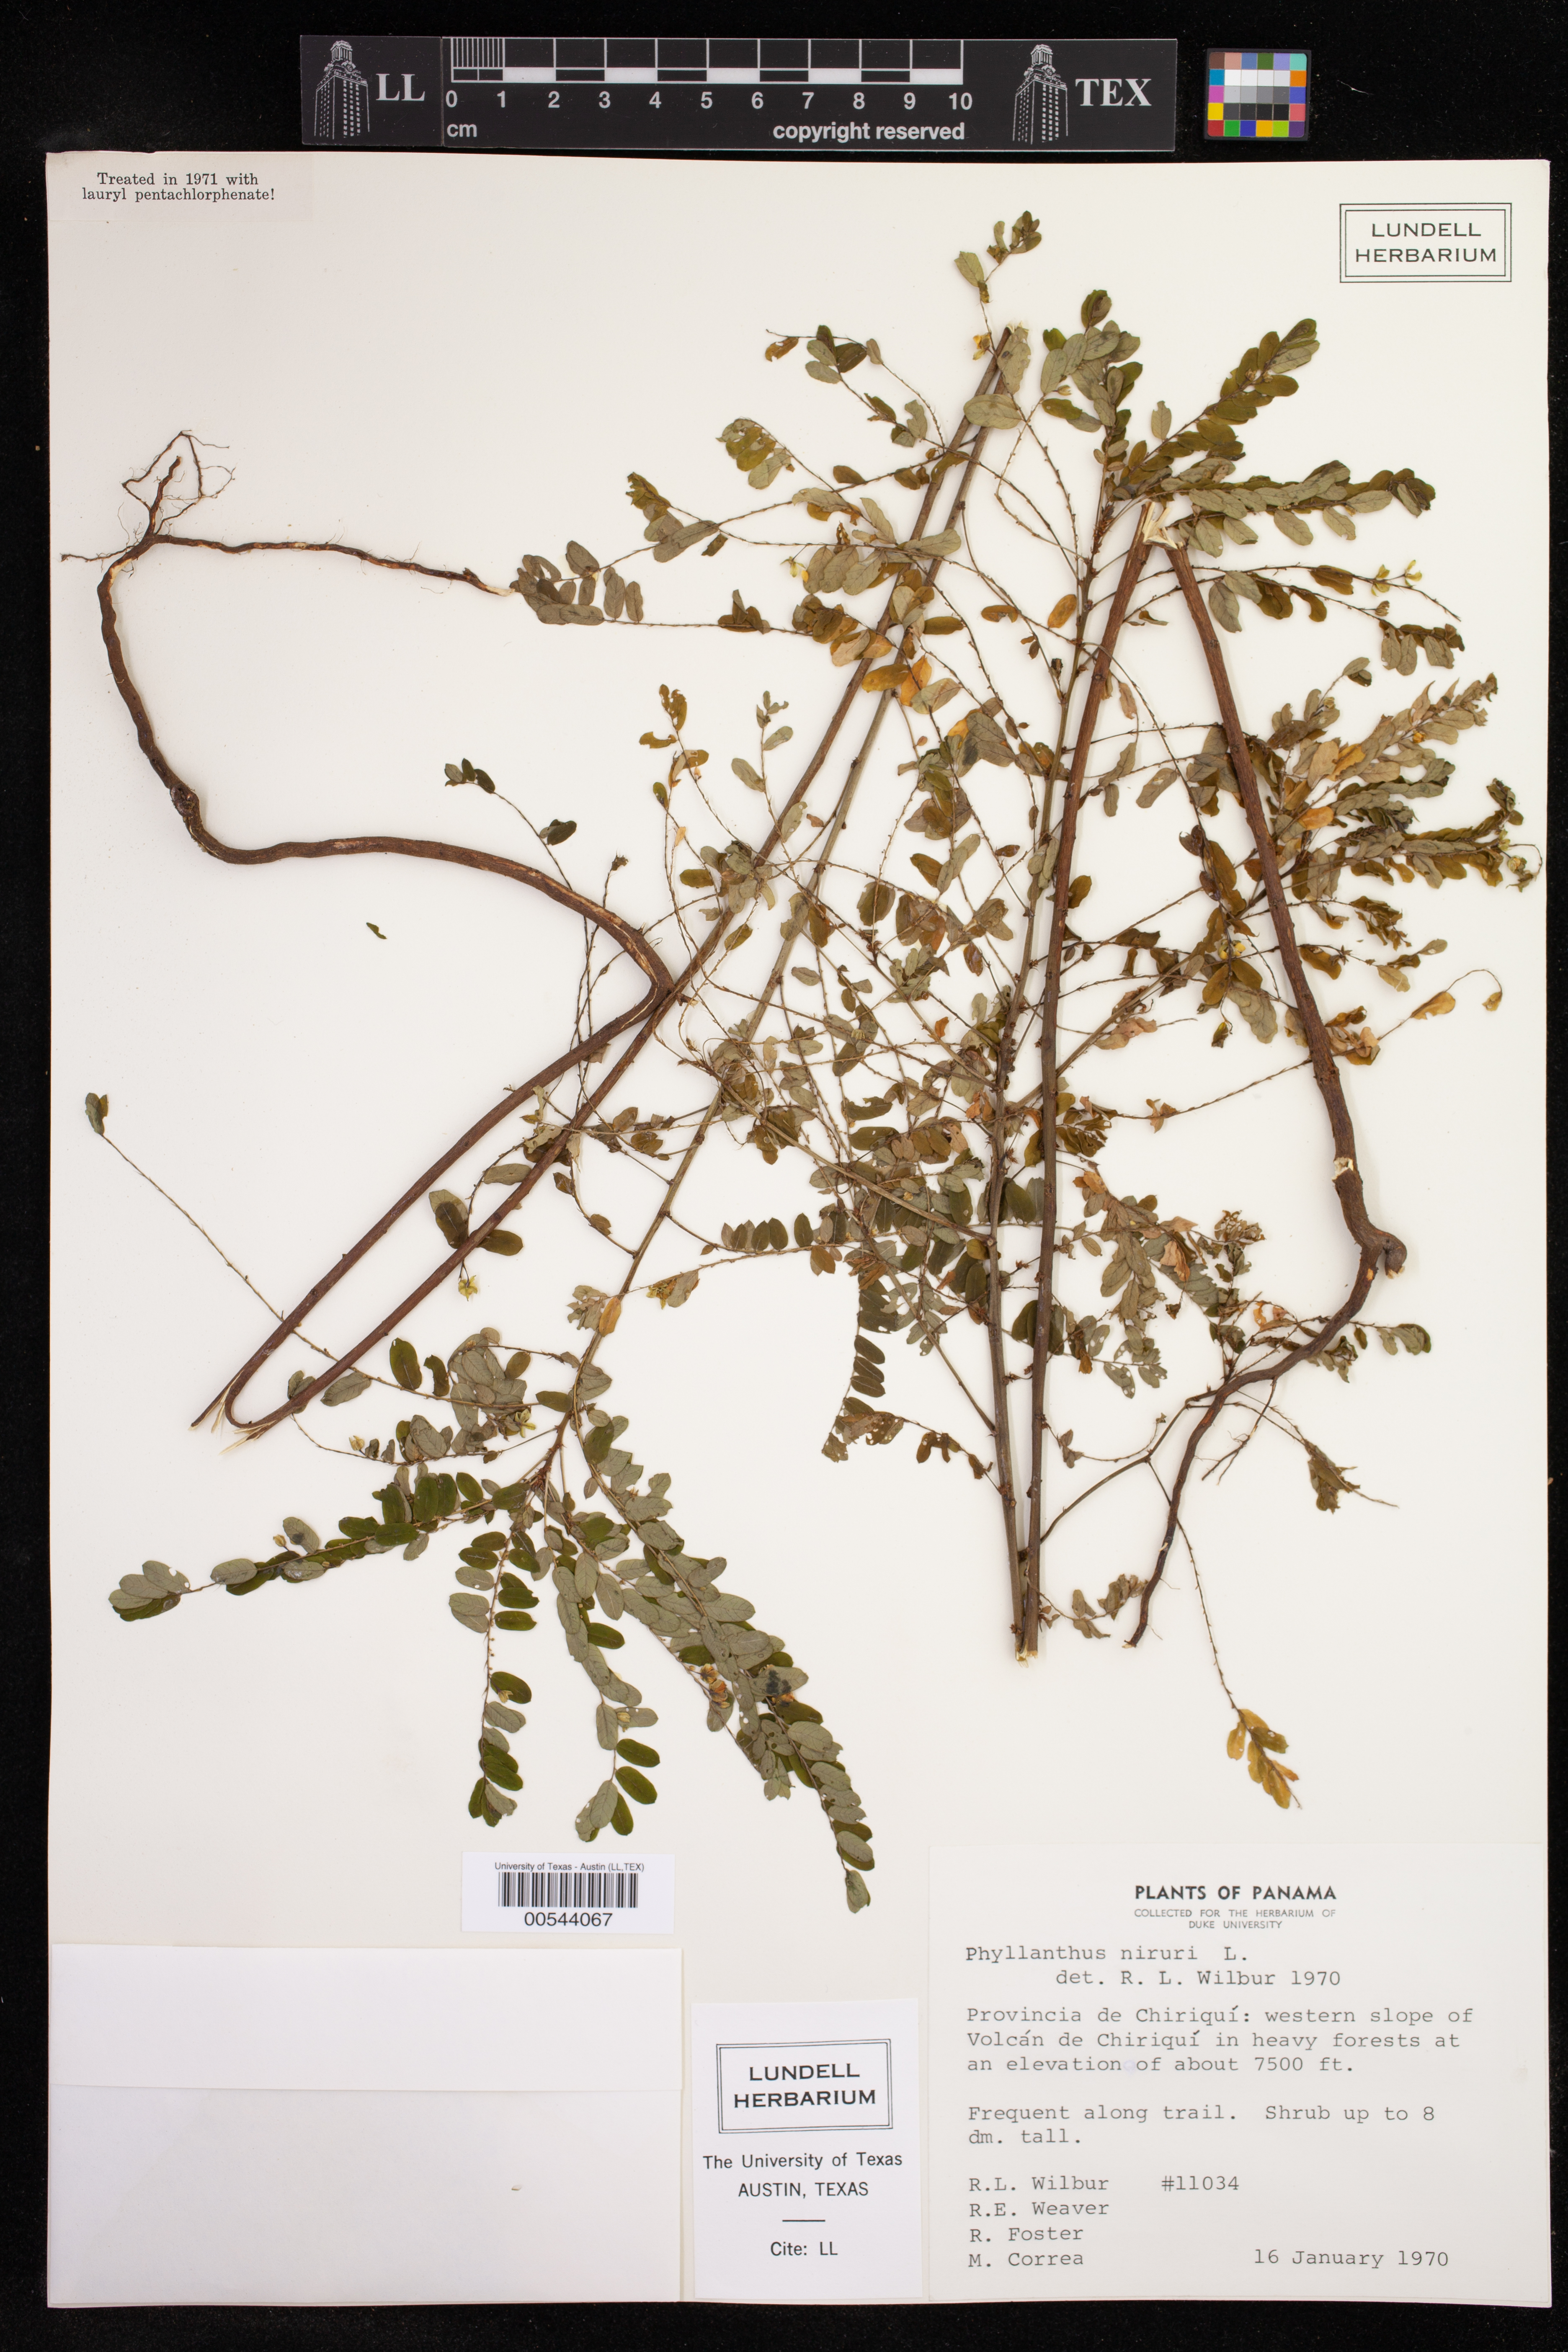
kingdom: Plantae
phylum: Tracheophyta
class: Magnoliopsida
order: Malpighiales
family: Phyllanthaceae
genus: Phyllanthus
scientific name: Phyllanthus niruri
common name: Niruri
